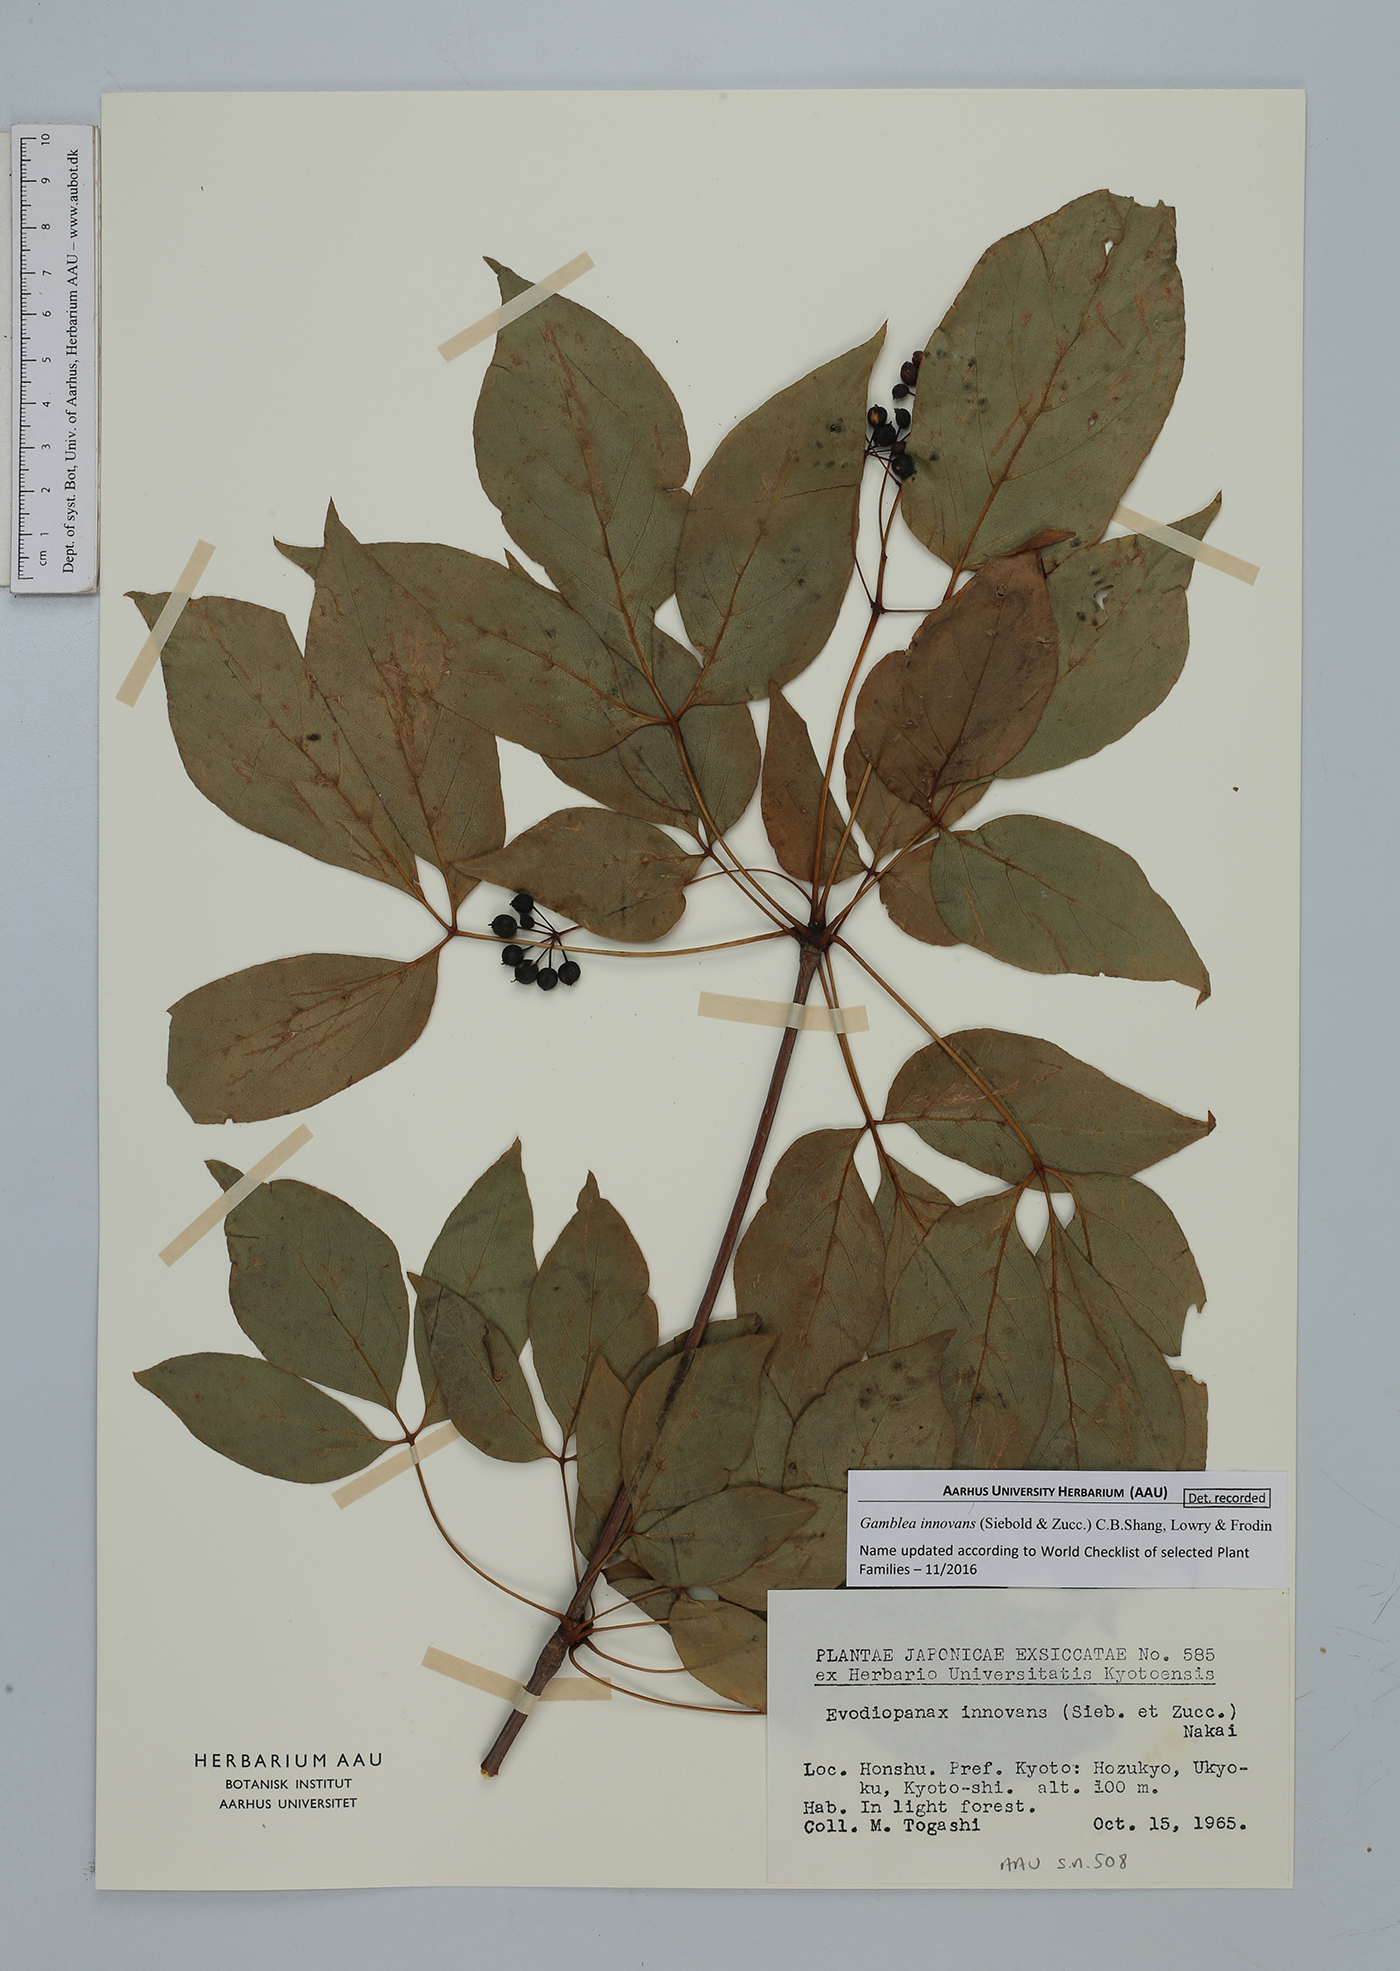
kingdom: Plantae
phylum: Tracheophyta
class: Magnoliopsida
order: Apiales
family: Araliaceae
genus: Gamblea
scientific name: Gamblea innovans
